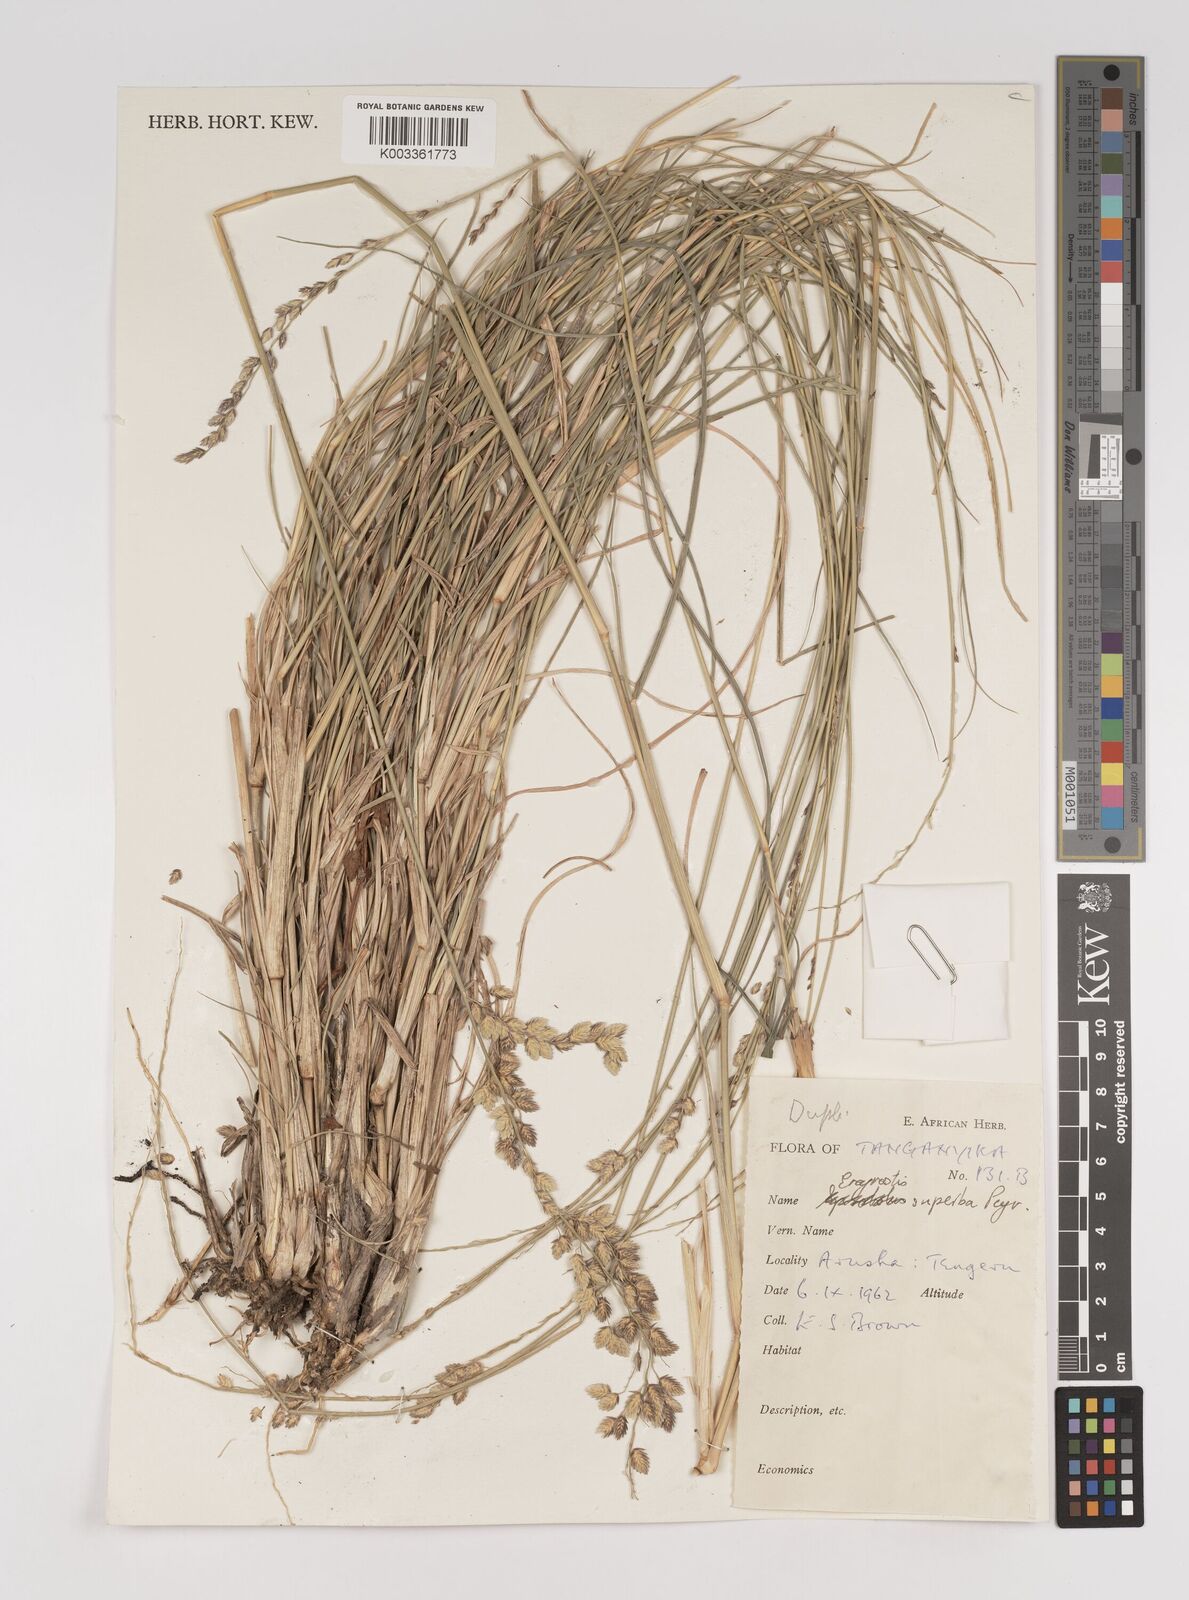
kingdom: Plantae
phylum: Tracheophyta
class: Liliopsida
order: Poales
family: Poaceae
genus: Eragrostis
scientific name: Eragrostis superba
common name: Wilman lovegrass
